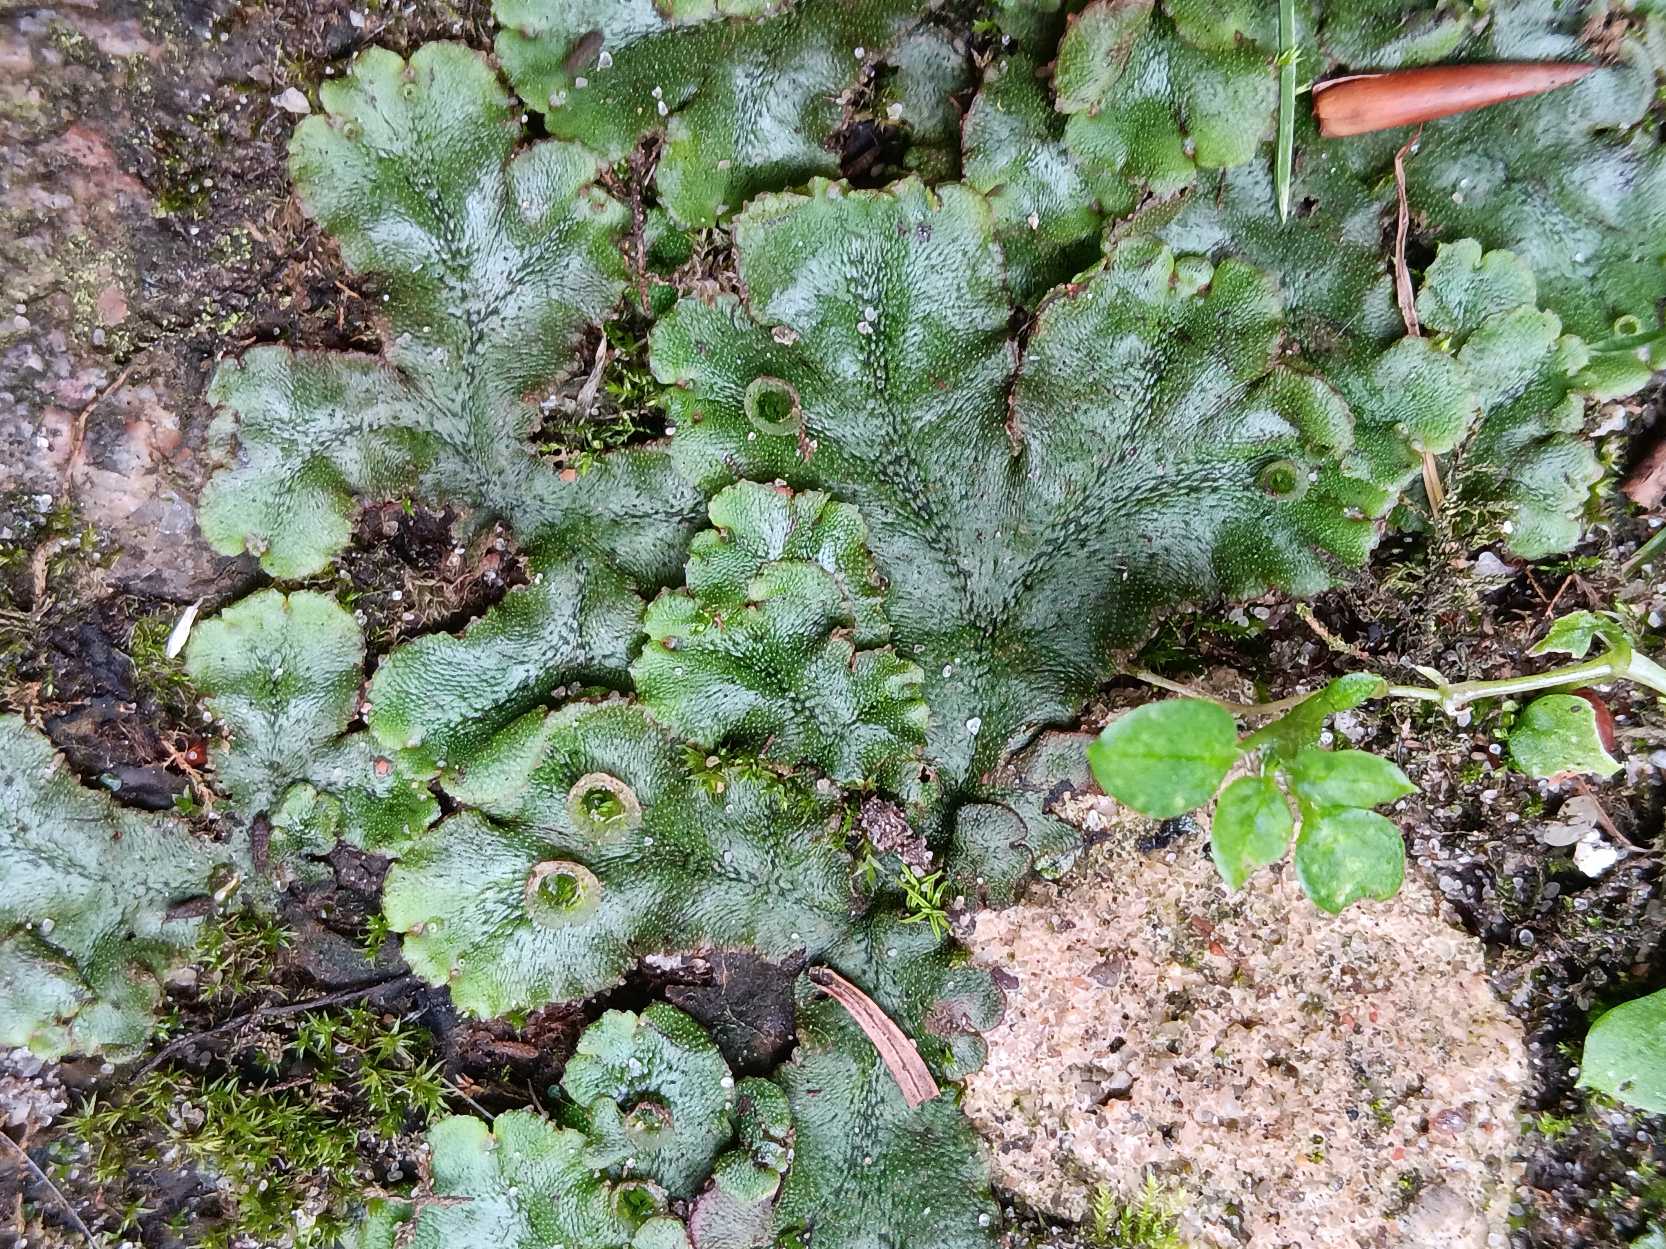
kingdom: Plantae
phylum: Marchantiophyta
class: Marchantiopsida
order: Marchantiales
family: Marchantiaceae
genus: Marchantia
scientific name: Marchantia polymorpha
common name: Almindelig lungemos (underart)
